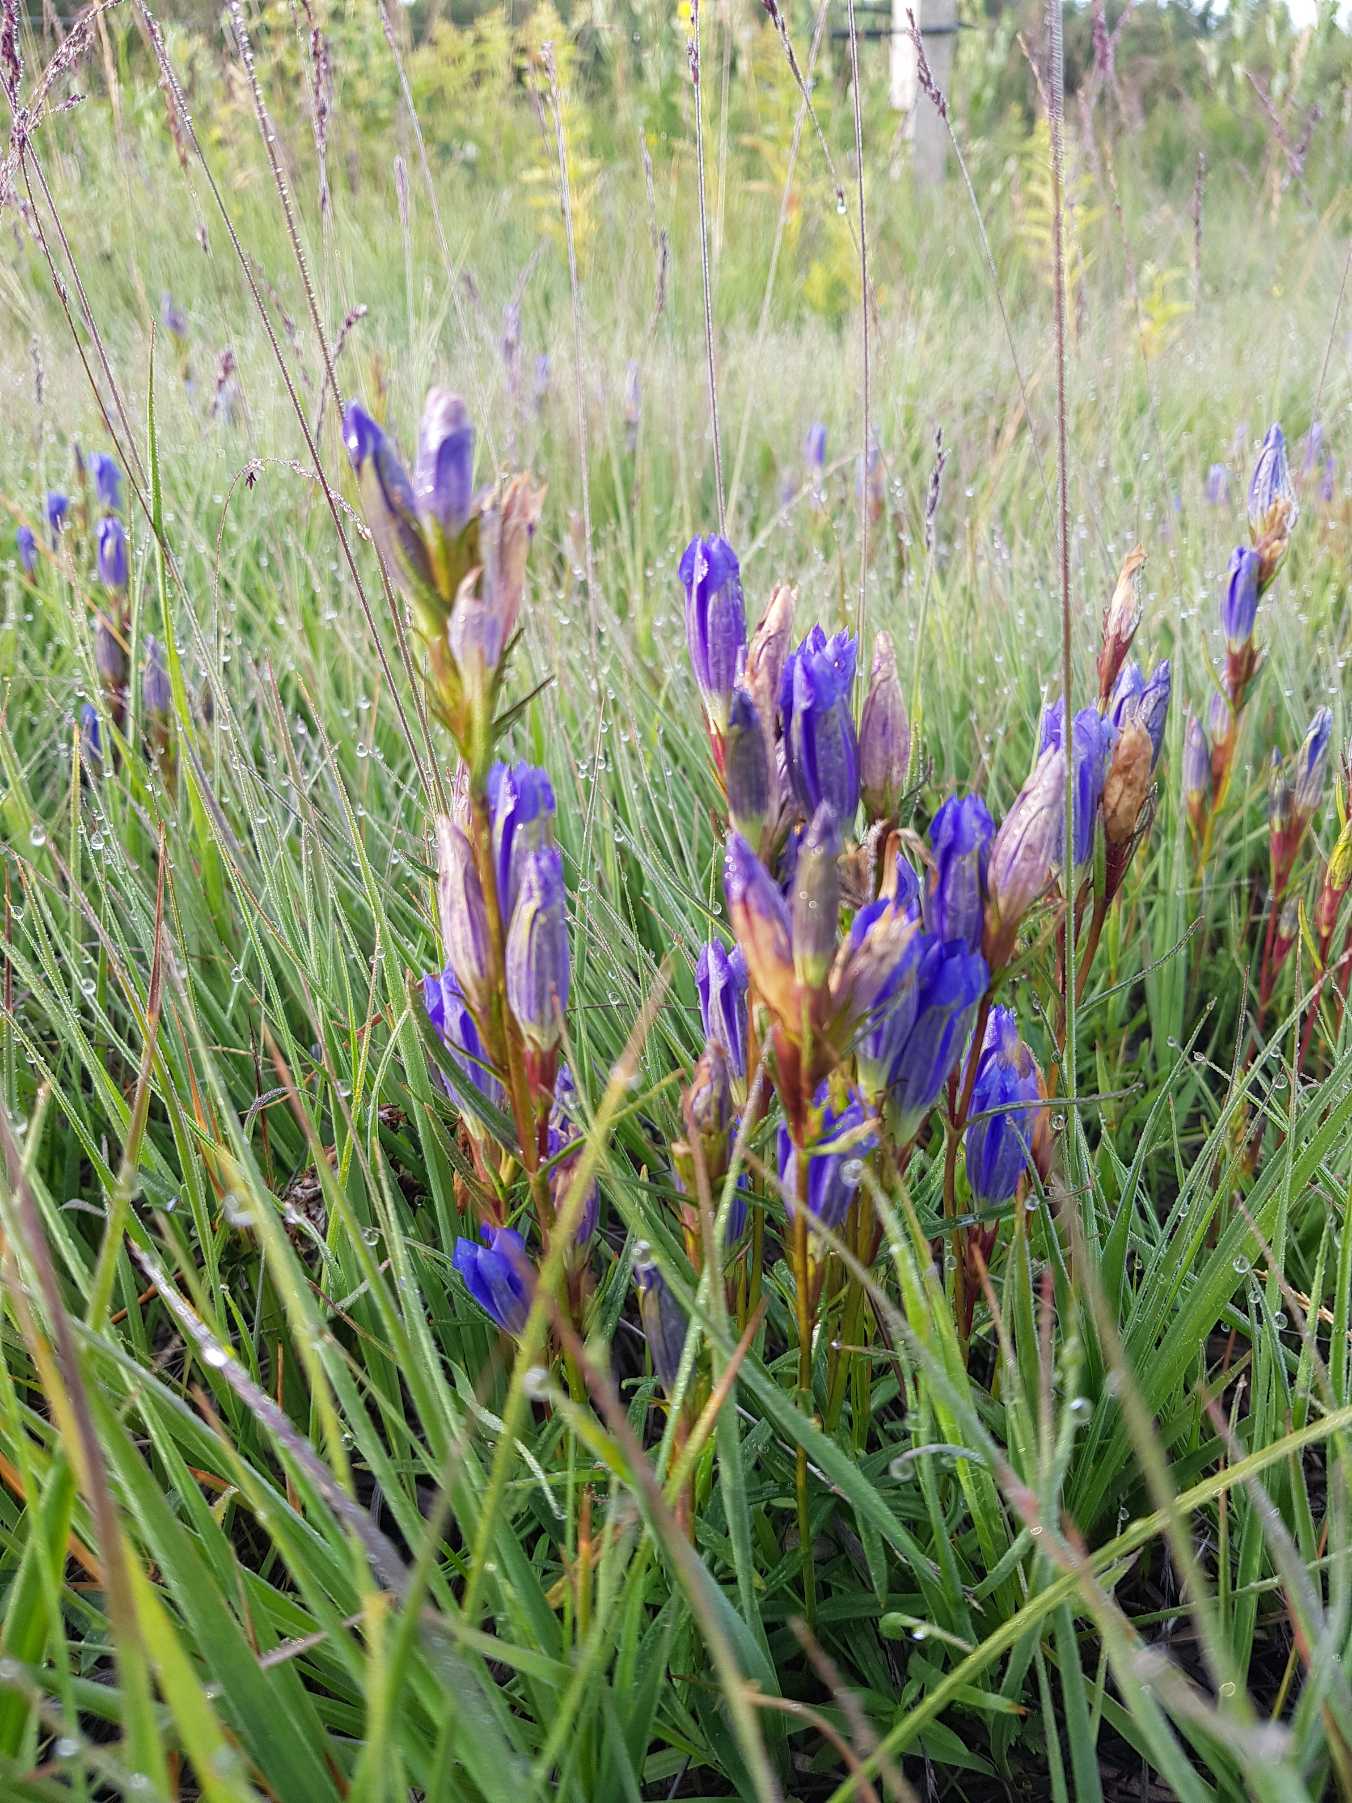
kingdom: Plantae
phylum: Tracheophyta
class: Magnoliopsida
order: Gentianales
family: Gentianaceae
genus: Gentiana
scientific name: Gentiana pneumonanthe
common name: Klokke-ensian
